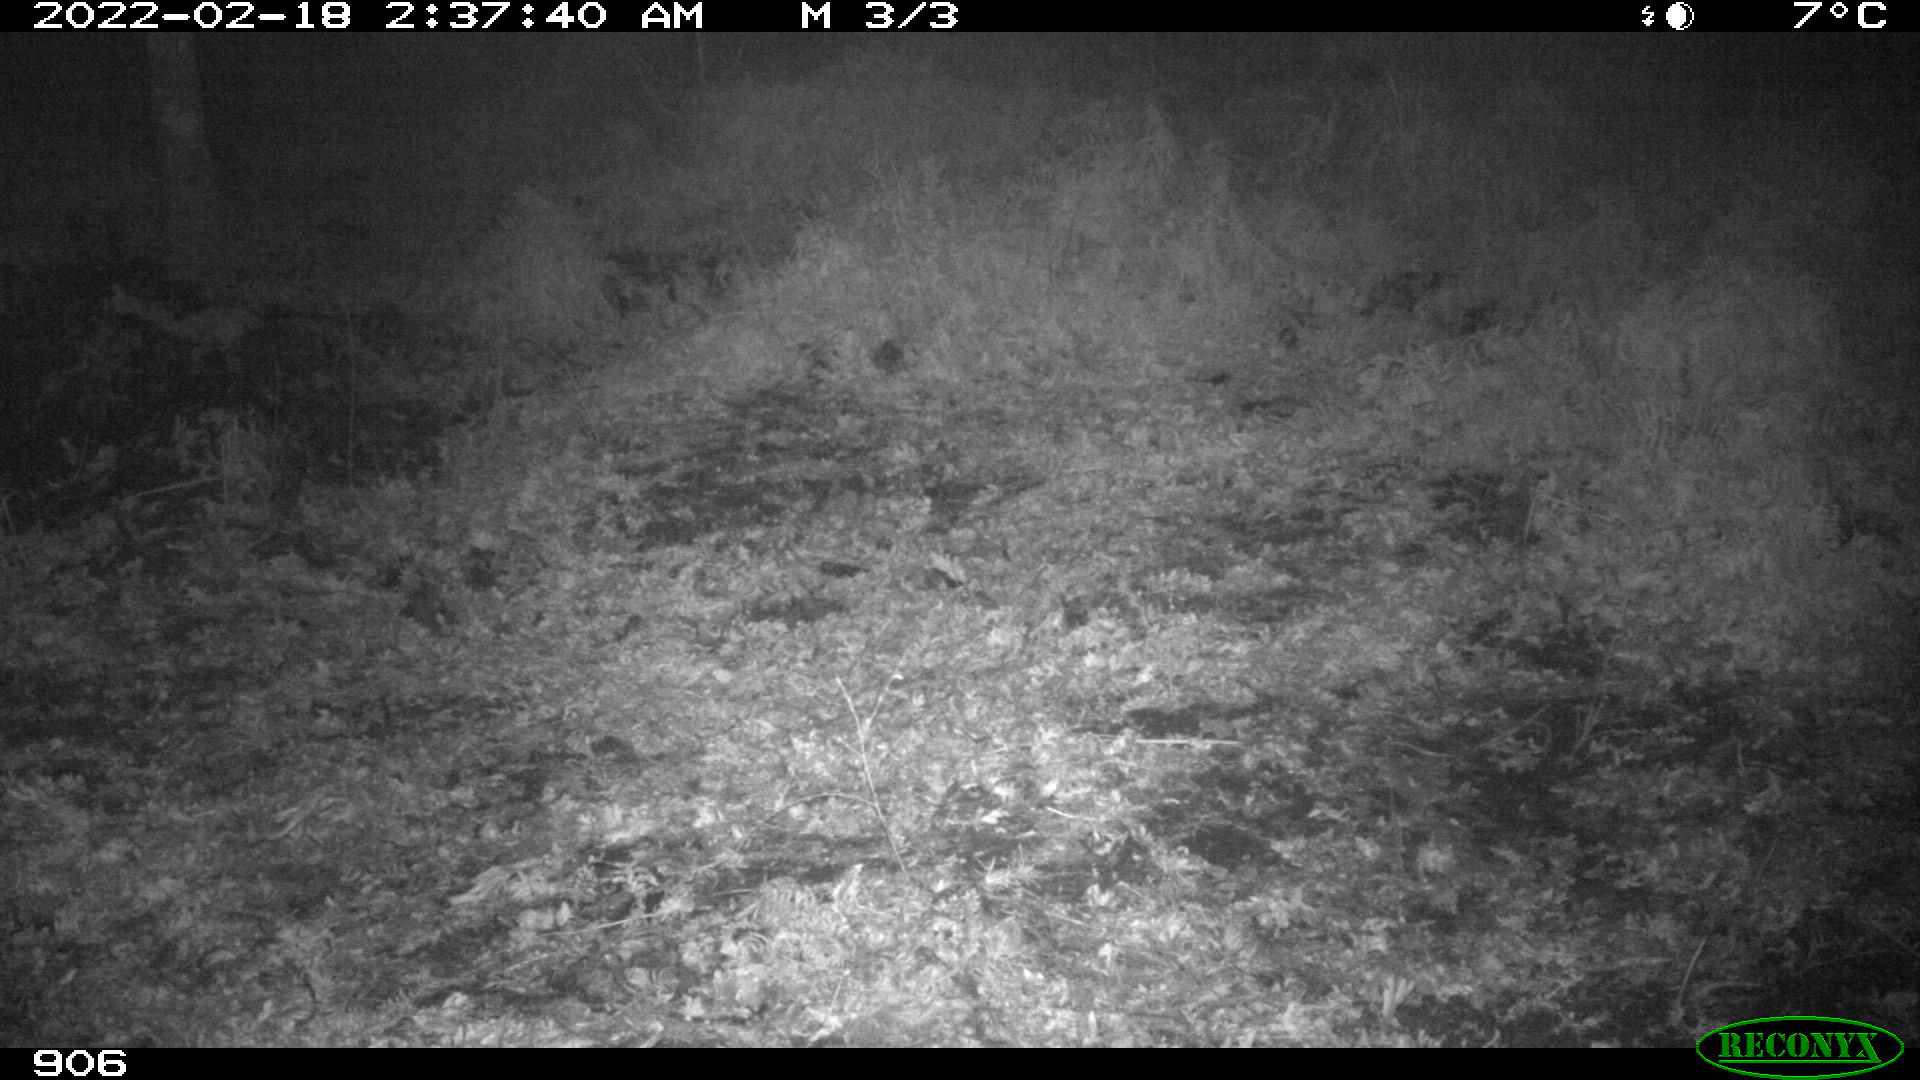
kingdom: Animalia
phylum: Chordata
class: Mammalia
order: Artiodactyla
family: Suidae
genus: Sus
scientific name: Sus scrofa
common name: Wild boar
